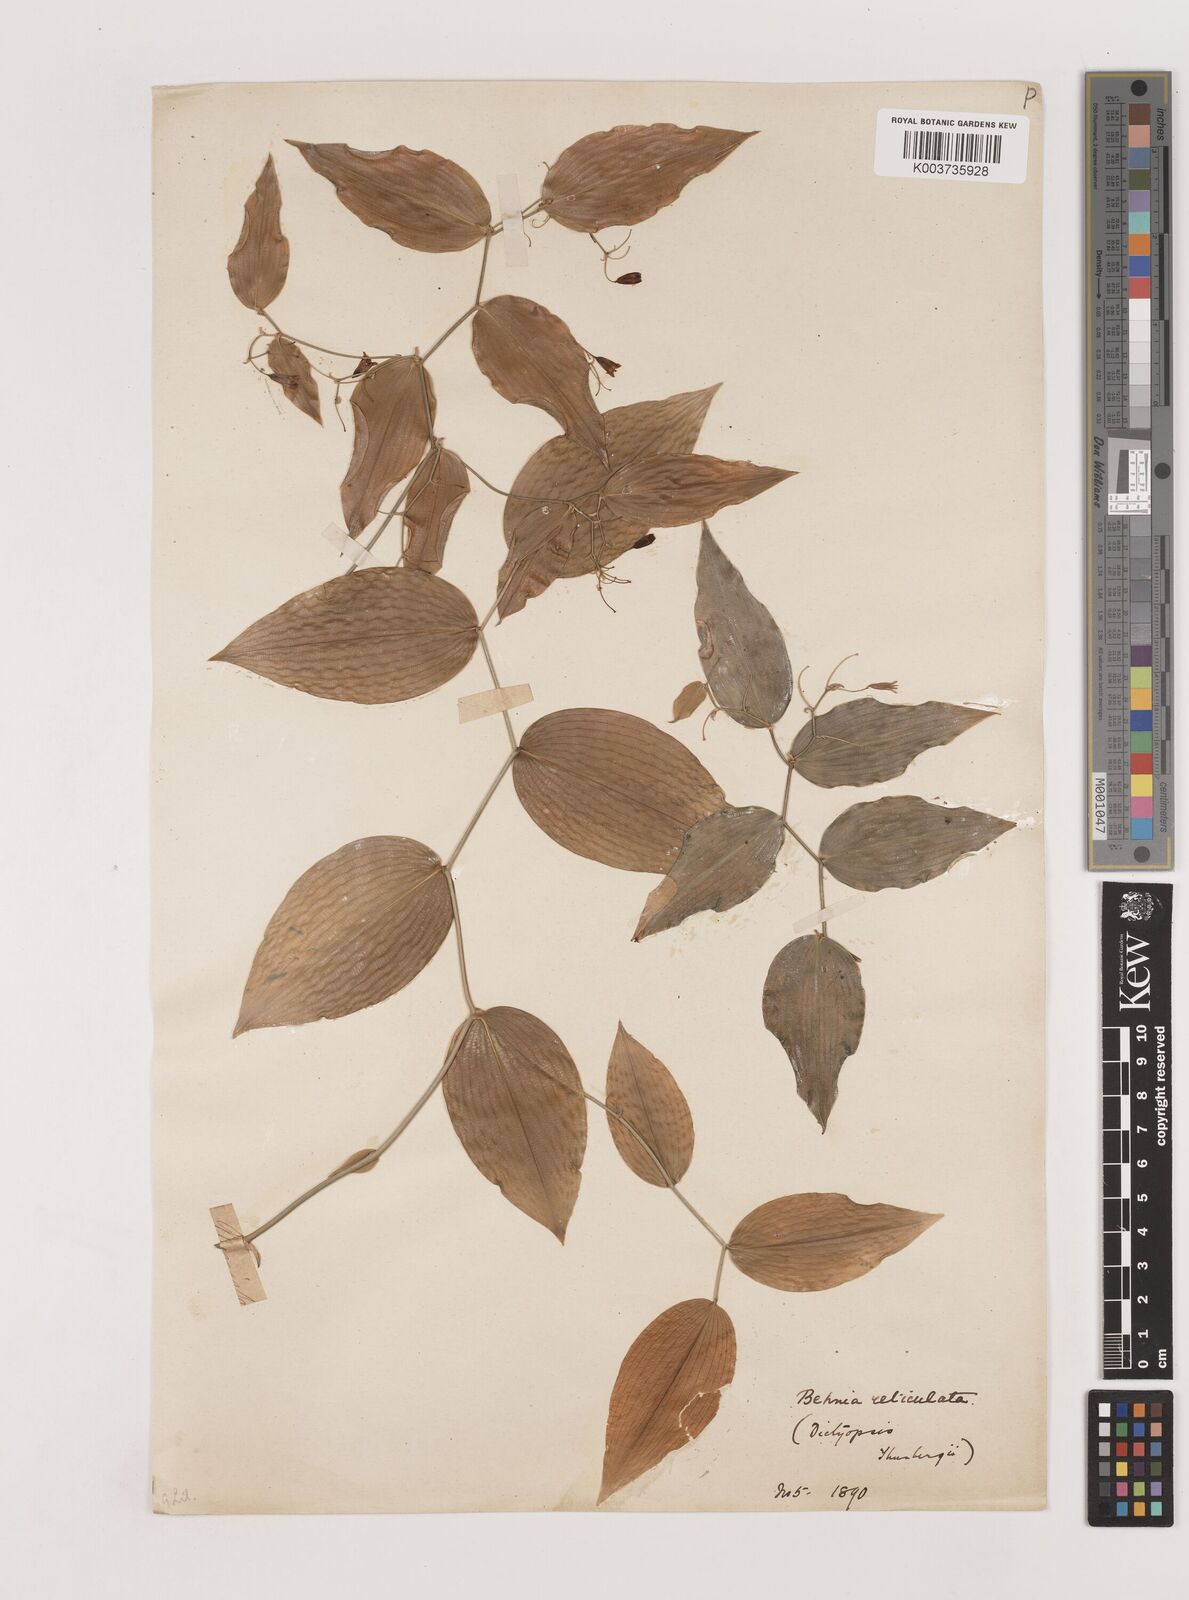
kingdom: Plantae
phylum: Tracheophyta
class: Liliopsida
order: Asparagales
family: Asparagaceae
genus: Behnia
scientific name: Behnia reticulata
